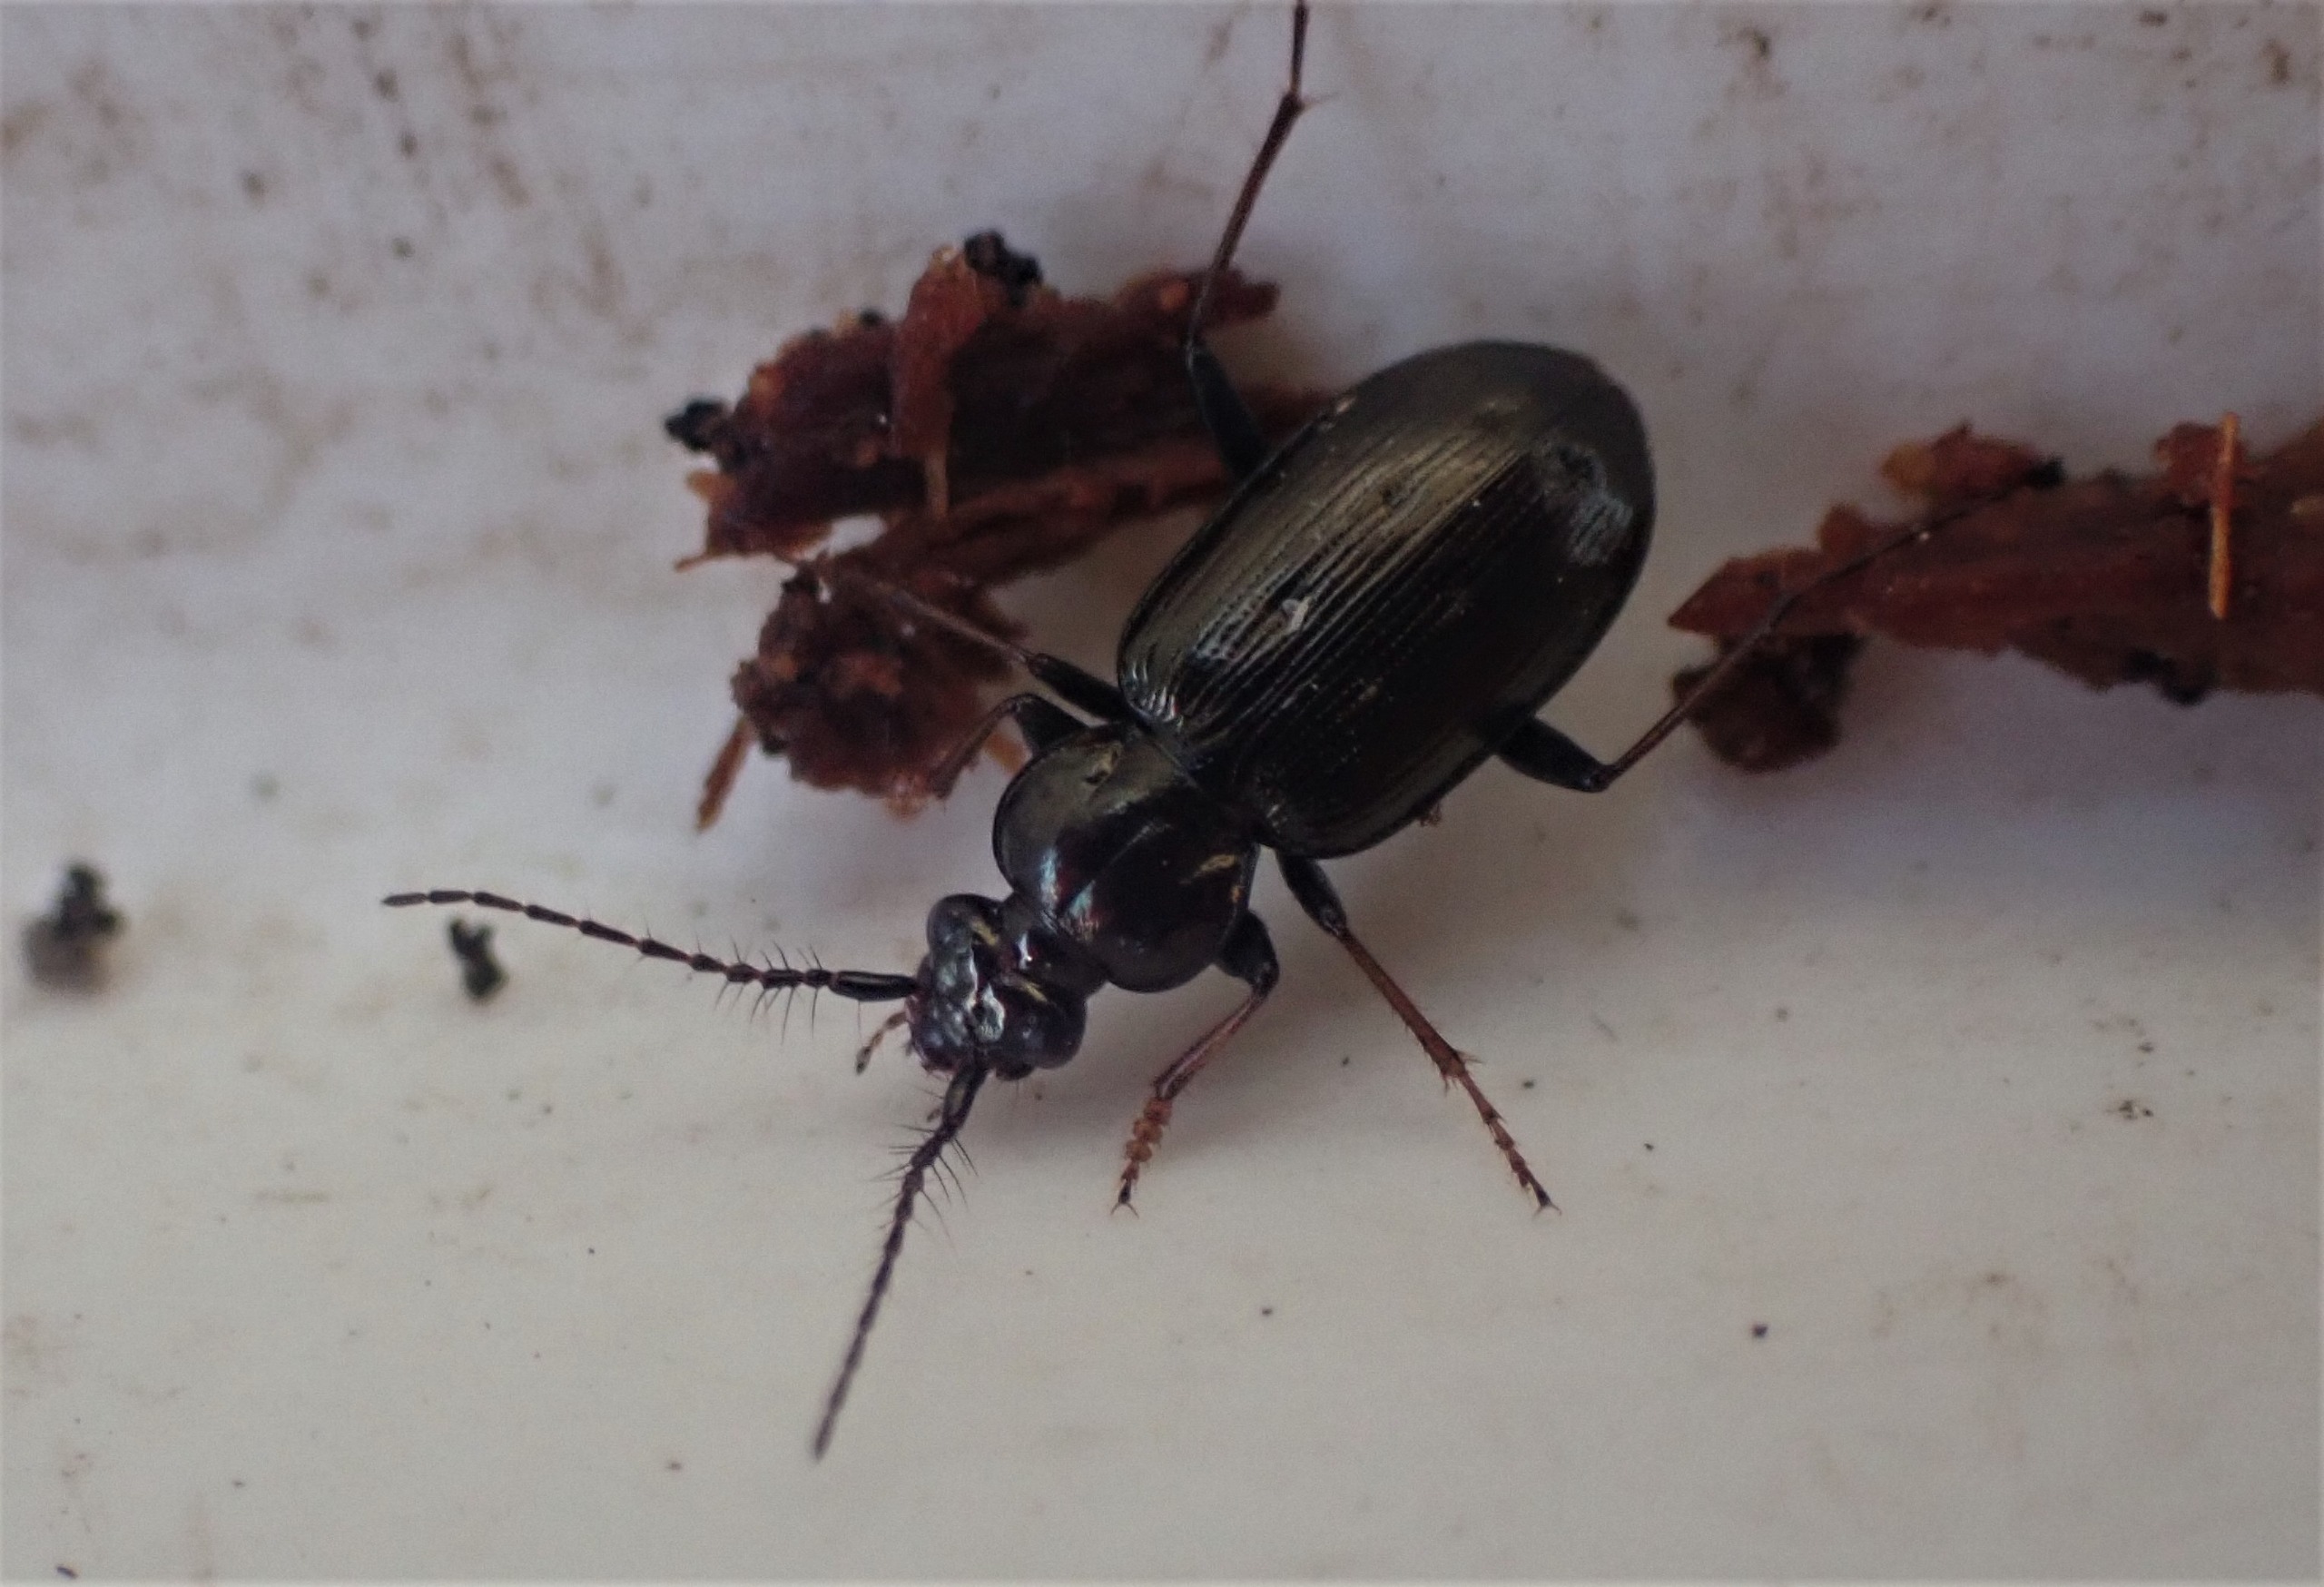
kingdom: Animalia
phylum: Arthropoda
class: Insecta
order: Coleoptera
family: Carabidae
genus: Loricera
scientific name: Loricera pilicornis
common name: Børsteløber
